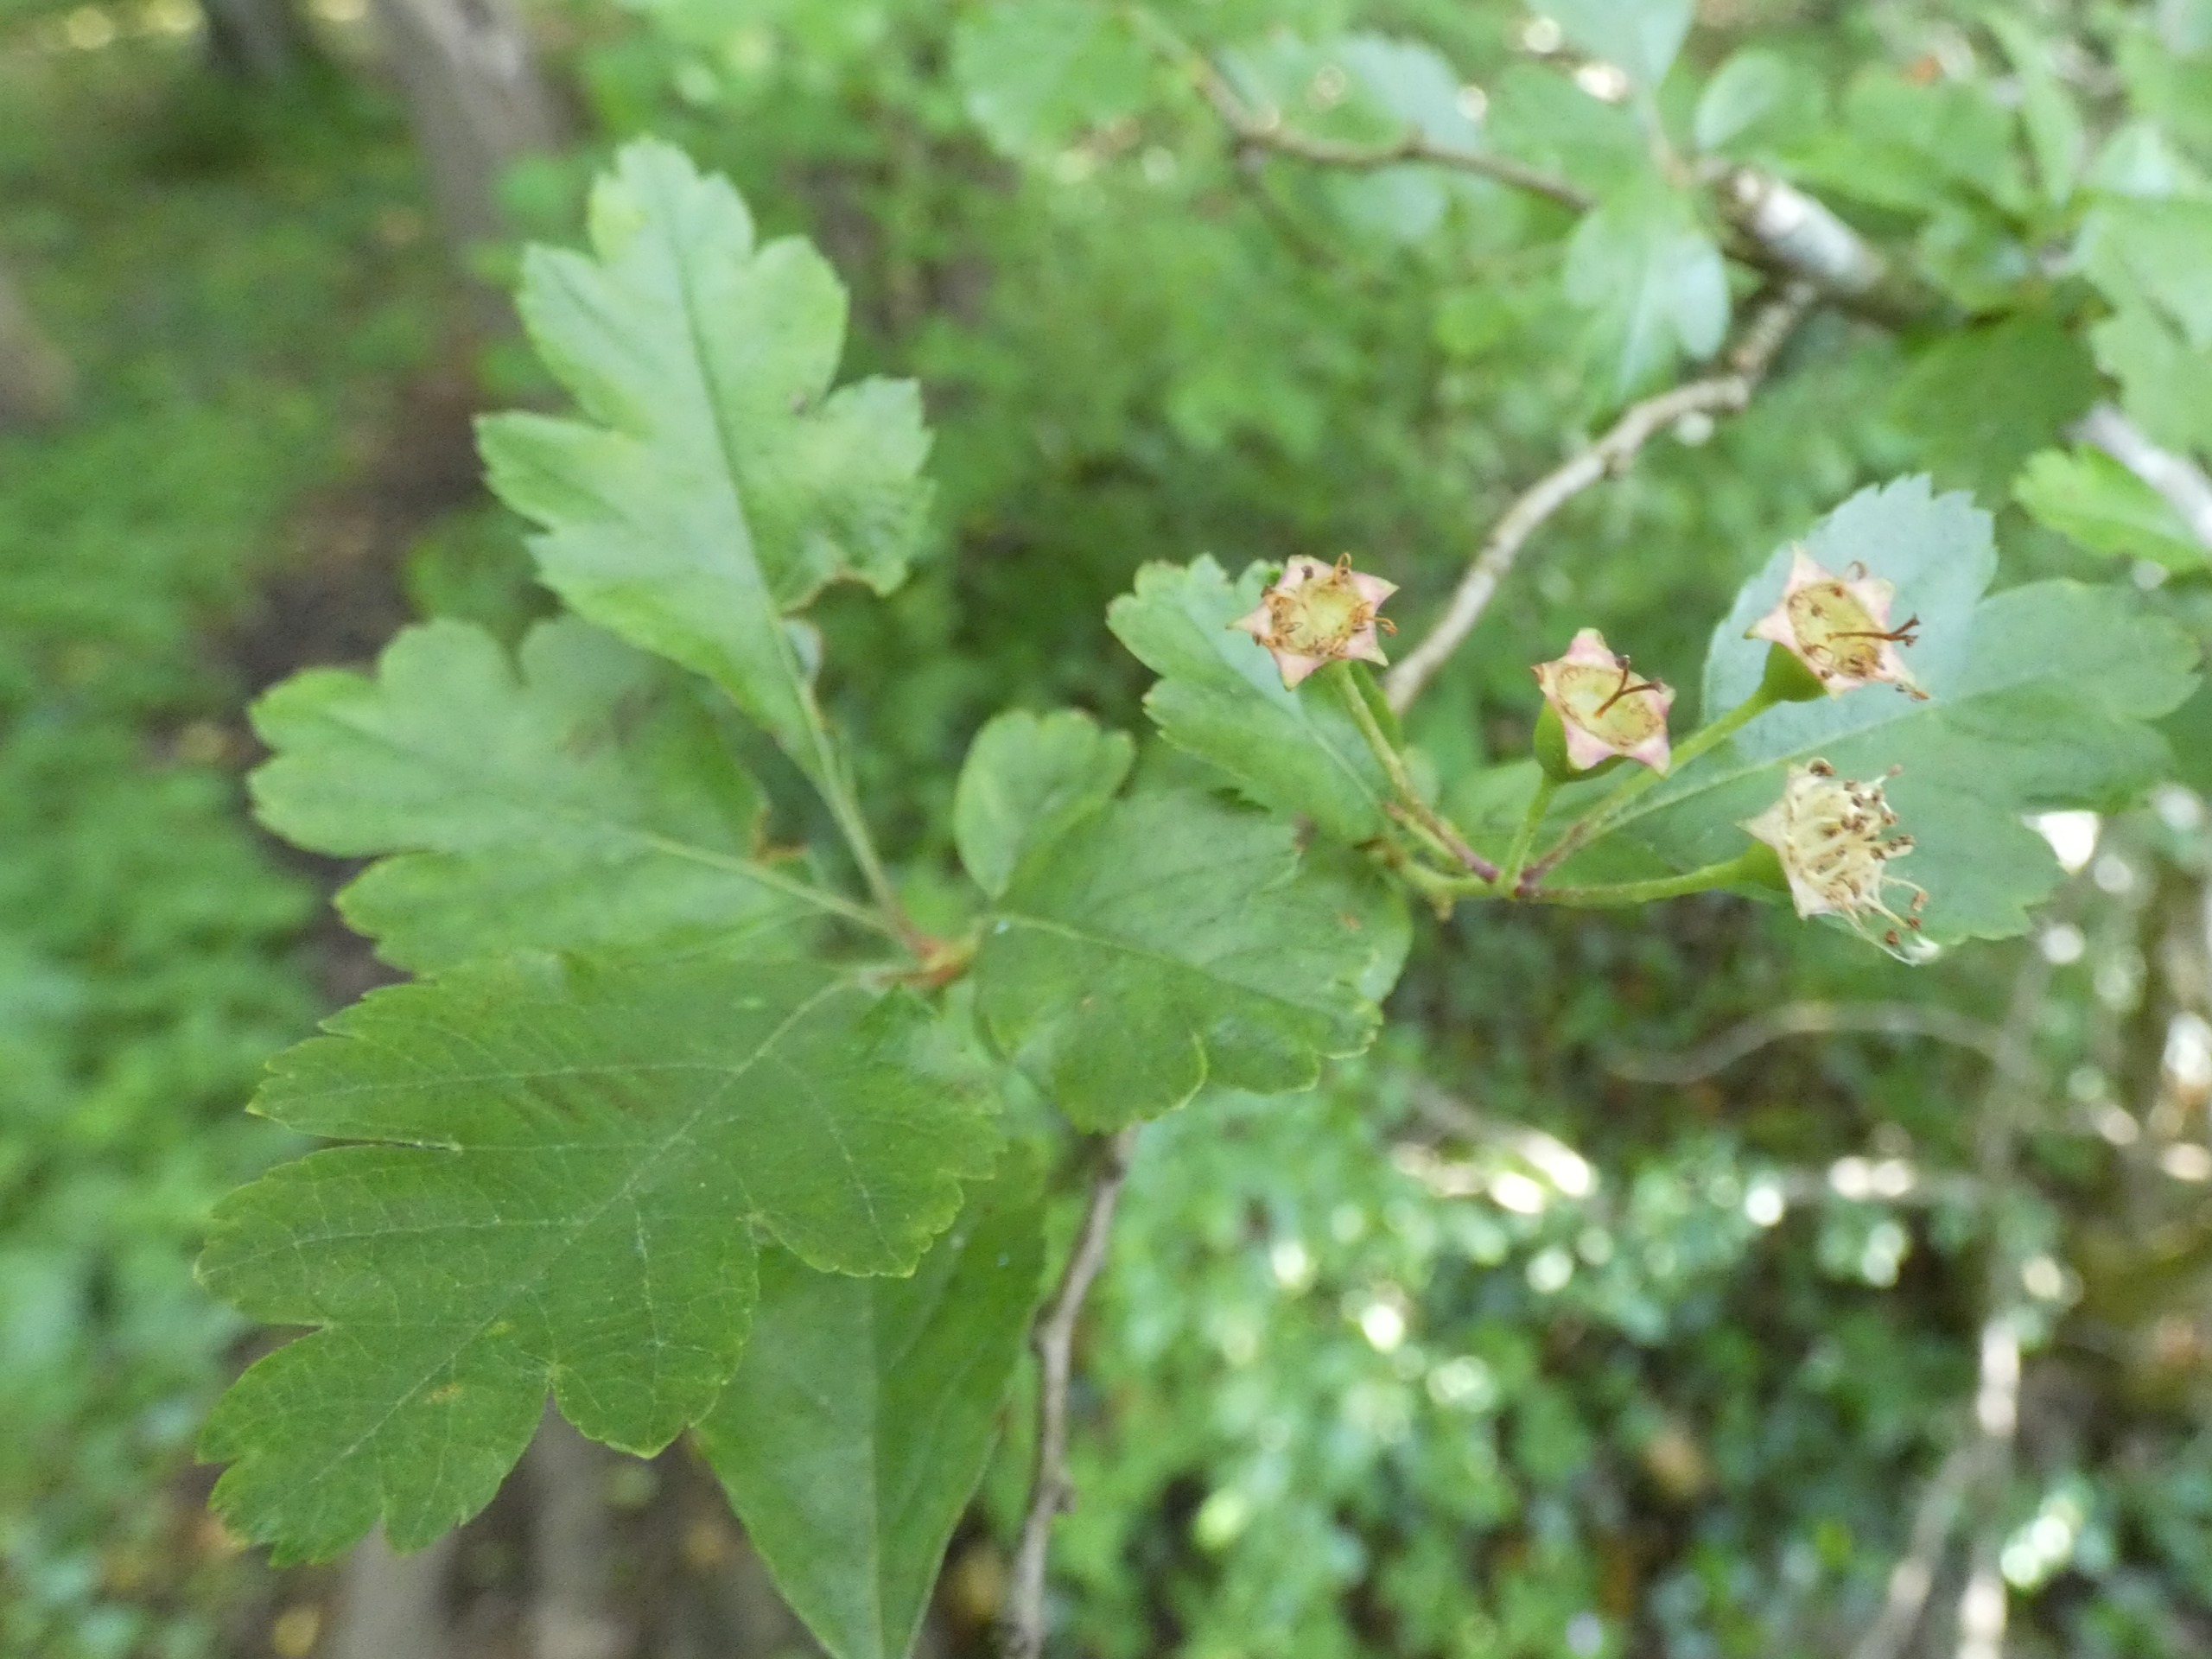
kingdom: Plantae
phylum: Tracheophyta
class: Magnoliopsida
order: Rosales
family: Rosaceae
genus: Crataegus
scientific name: Crataegus media
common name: Almindelig hvidtjørn × engriflet hvidtjørn
